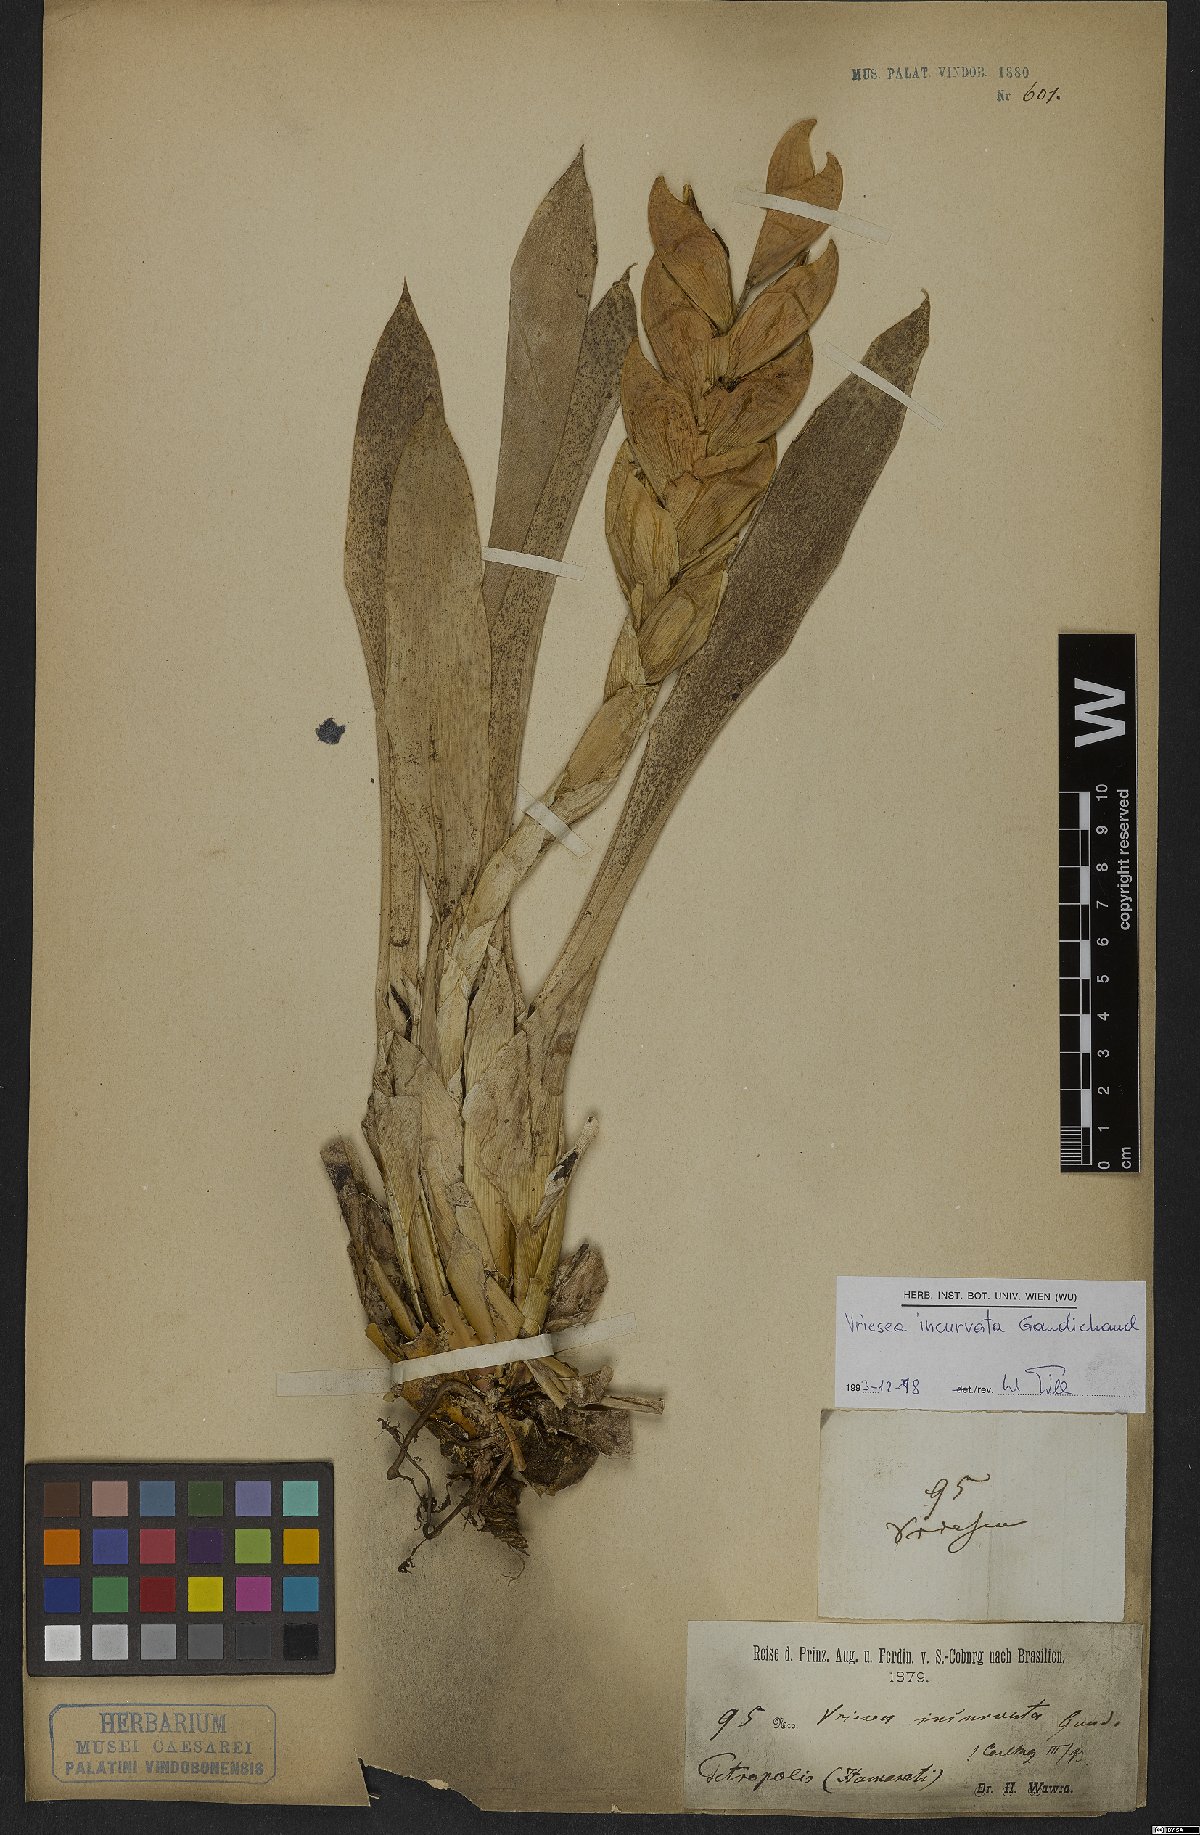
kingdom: Plantae
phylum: Tracheophyta
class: Liliopsida
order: Poales
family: Bromeliaceae
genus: Vriesea
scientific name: Vriesea incurvata
